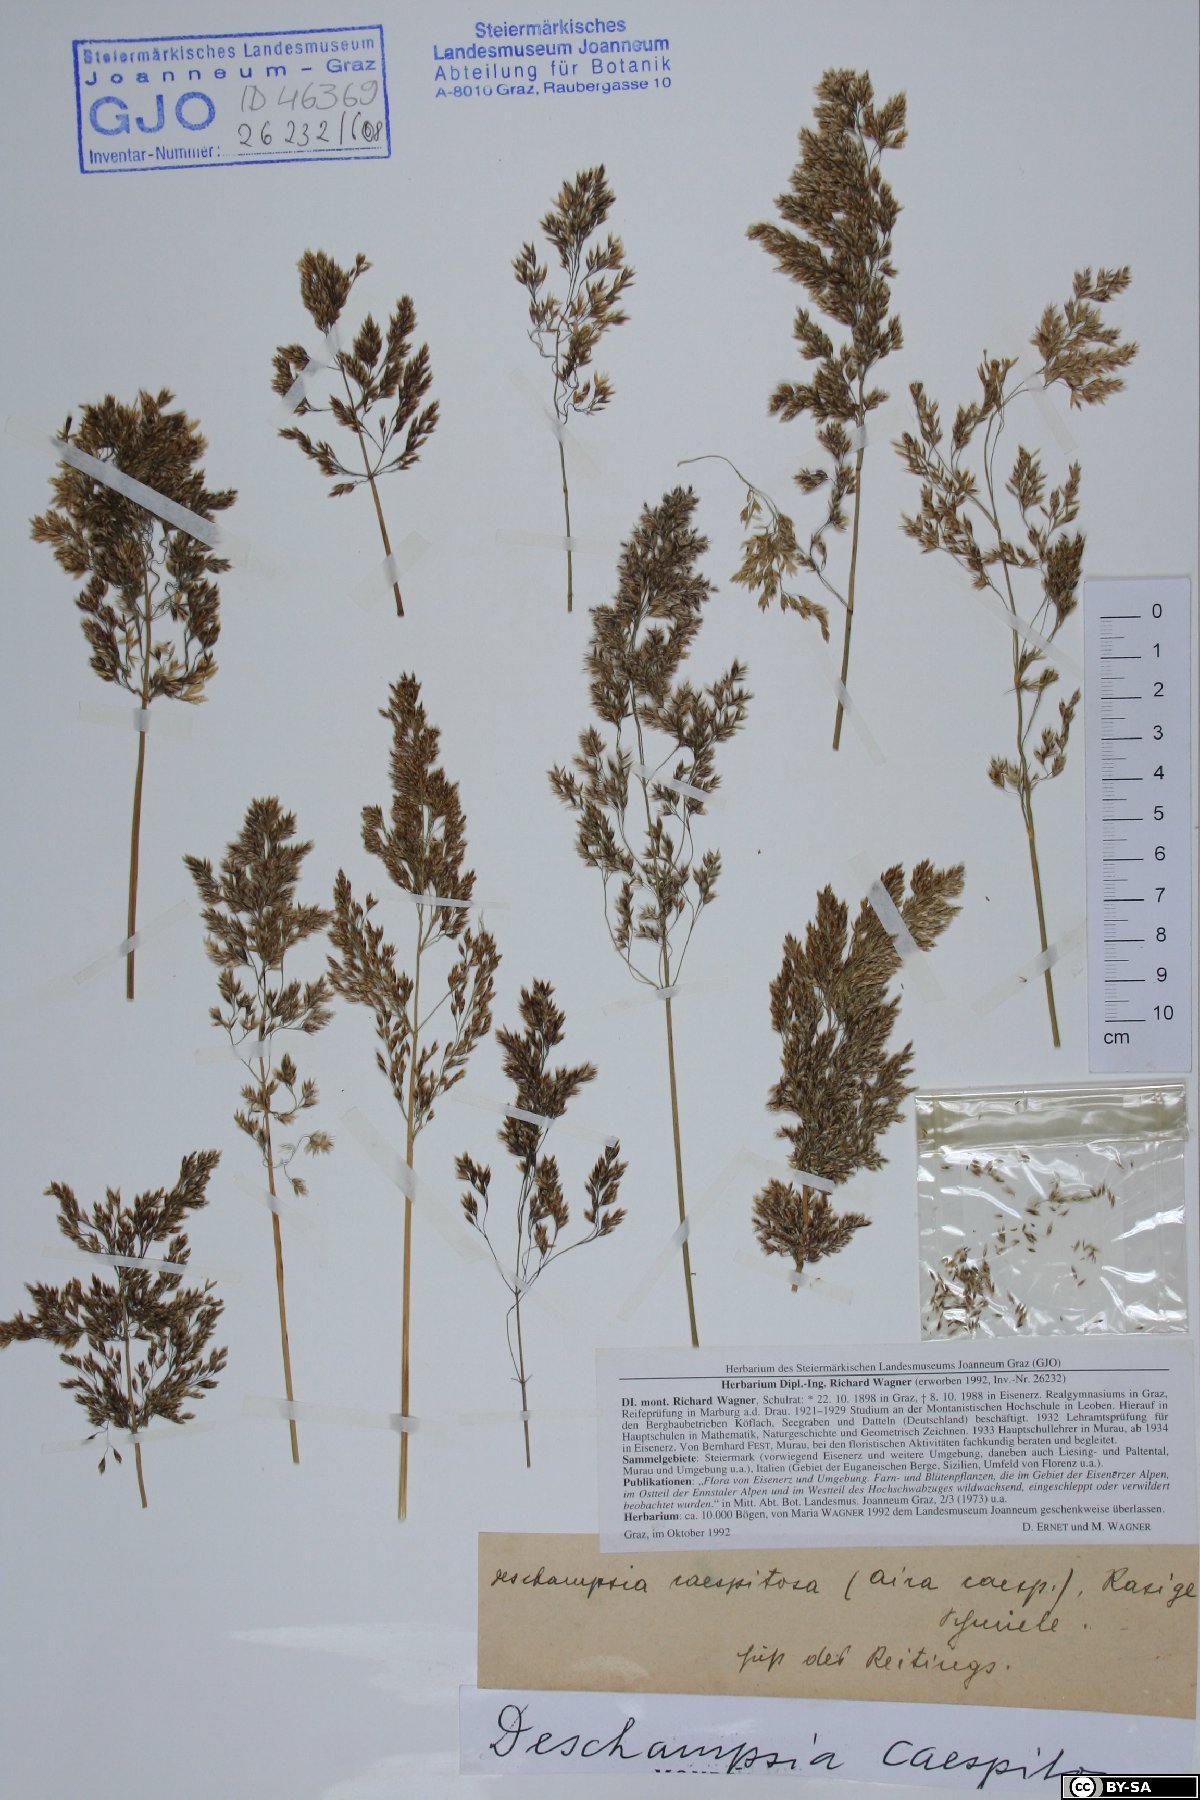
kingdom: Plantae
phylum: Tracheophyta
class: Liliopsida
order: Poales
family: Poaceae
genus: Deschampsia
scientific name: Deschampsia cespitosa
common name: Tufted hair-grass
